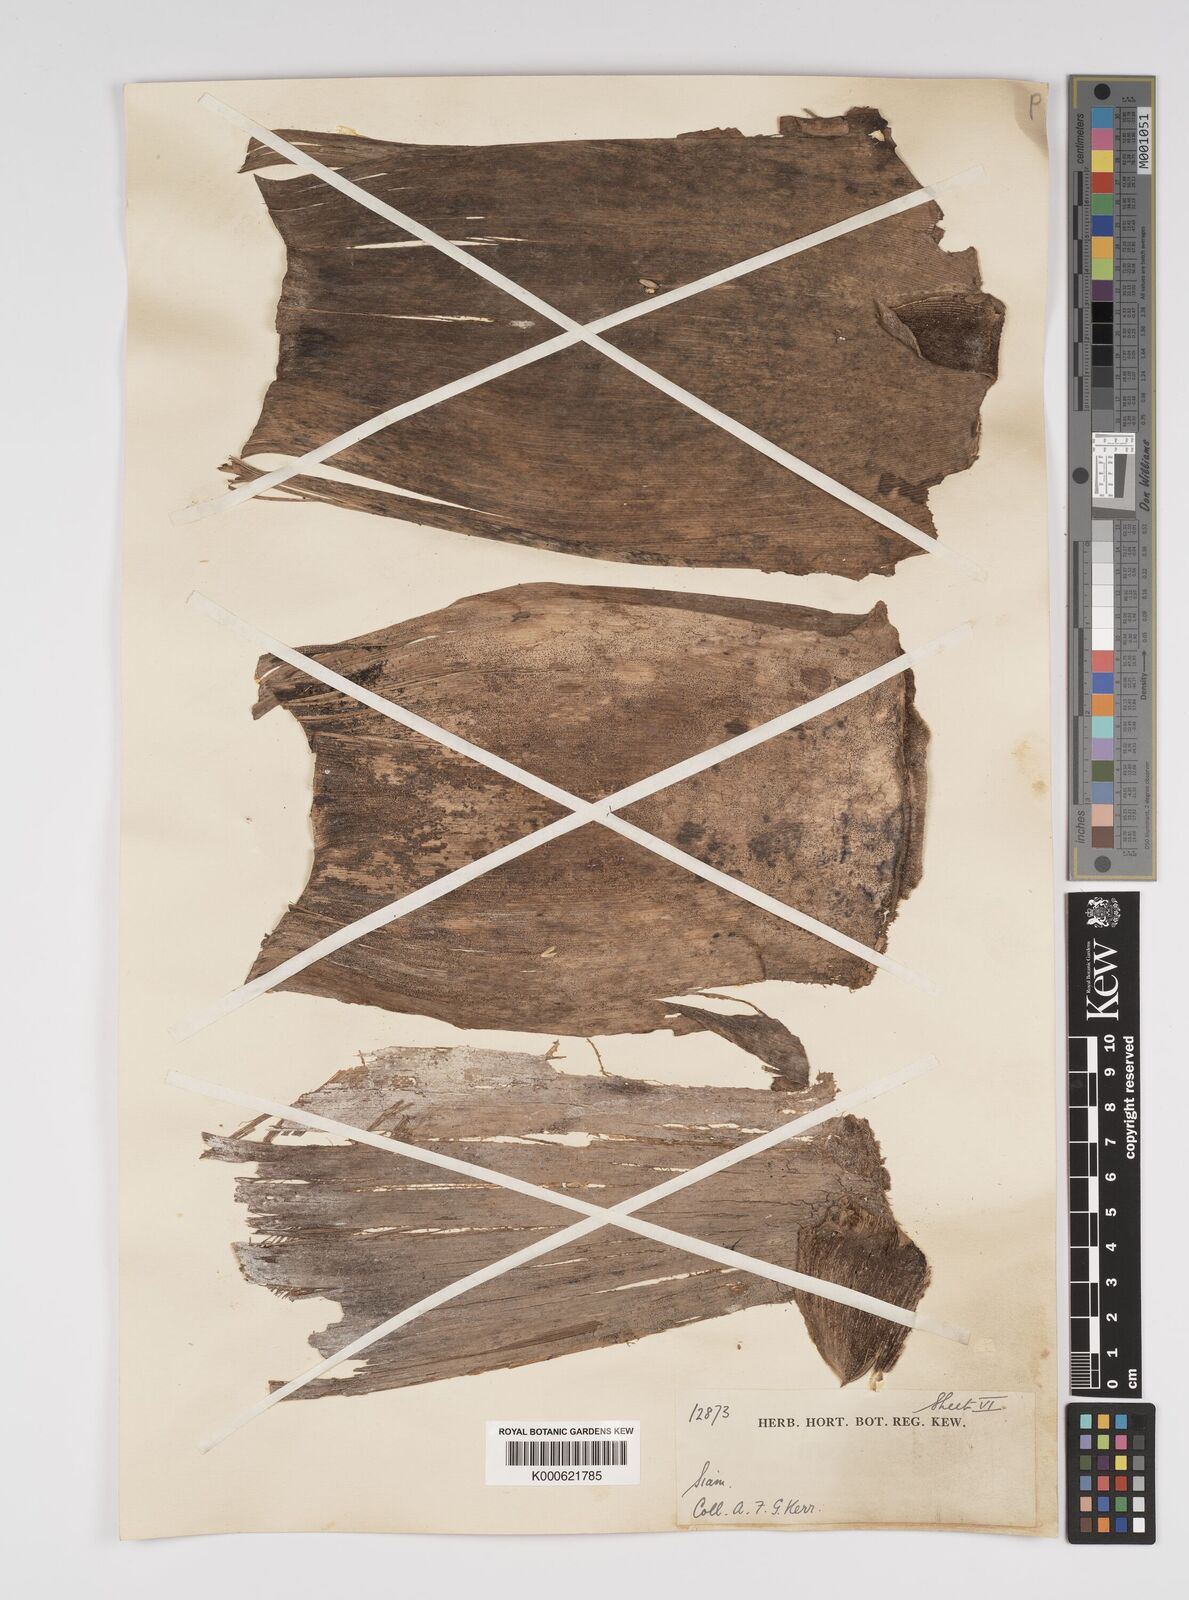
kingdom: Plantae
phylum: Tracheophyta
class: Liliopsida
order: Poales
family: Poaceae
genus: Bambusa
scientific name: Bambusa bambos
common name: Indian thorny bamboo
